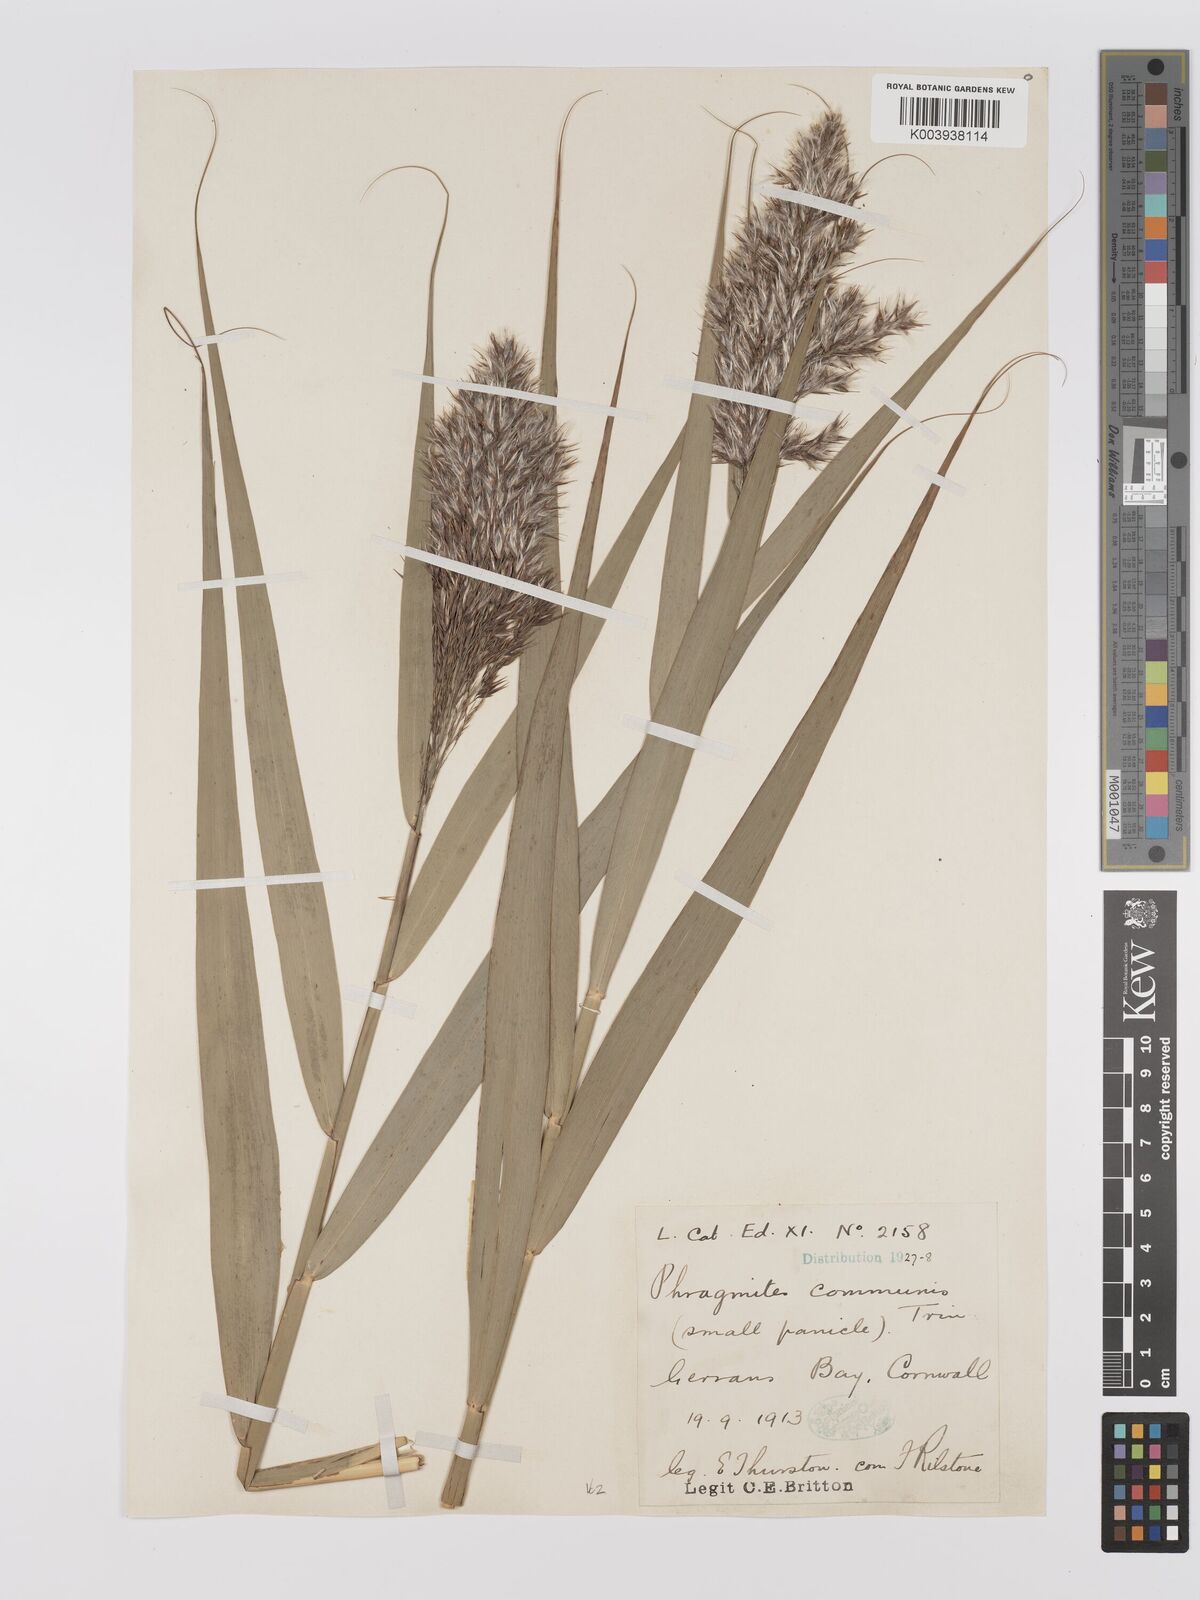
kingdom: Plantae
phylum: Tracheophyta
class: Liliopsida
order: Poales
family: Poaceae
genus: Phragmites
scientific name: Phragmites australis
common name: Common reed
